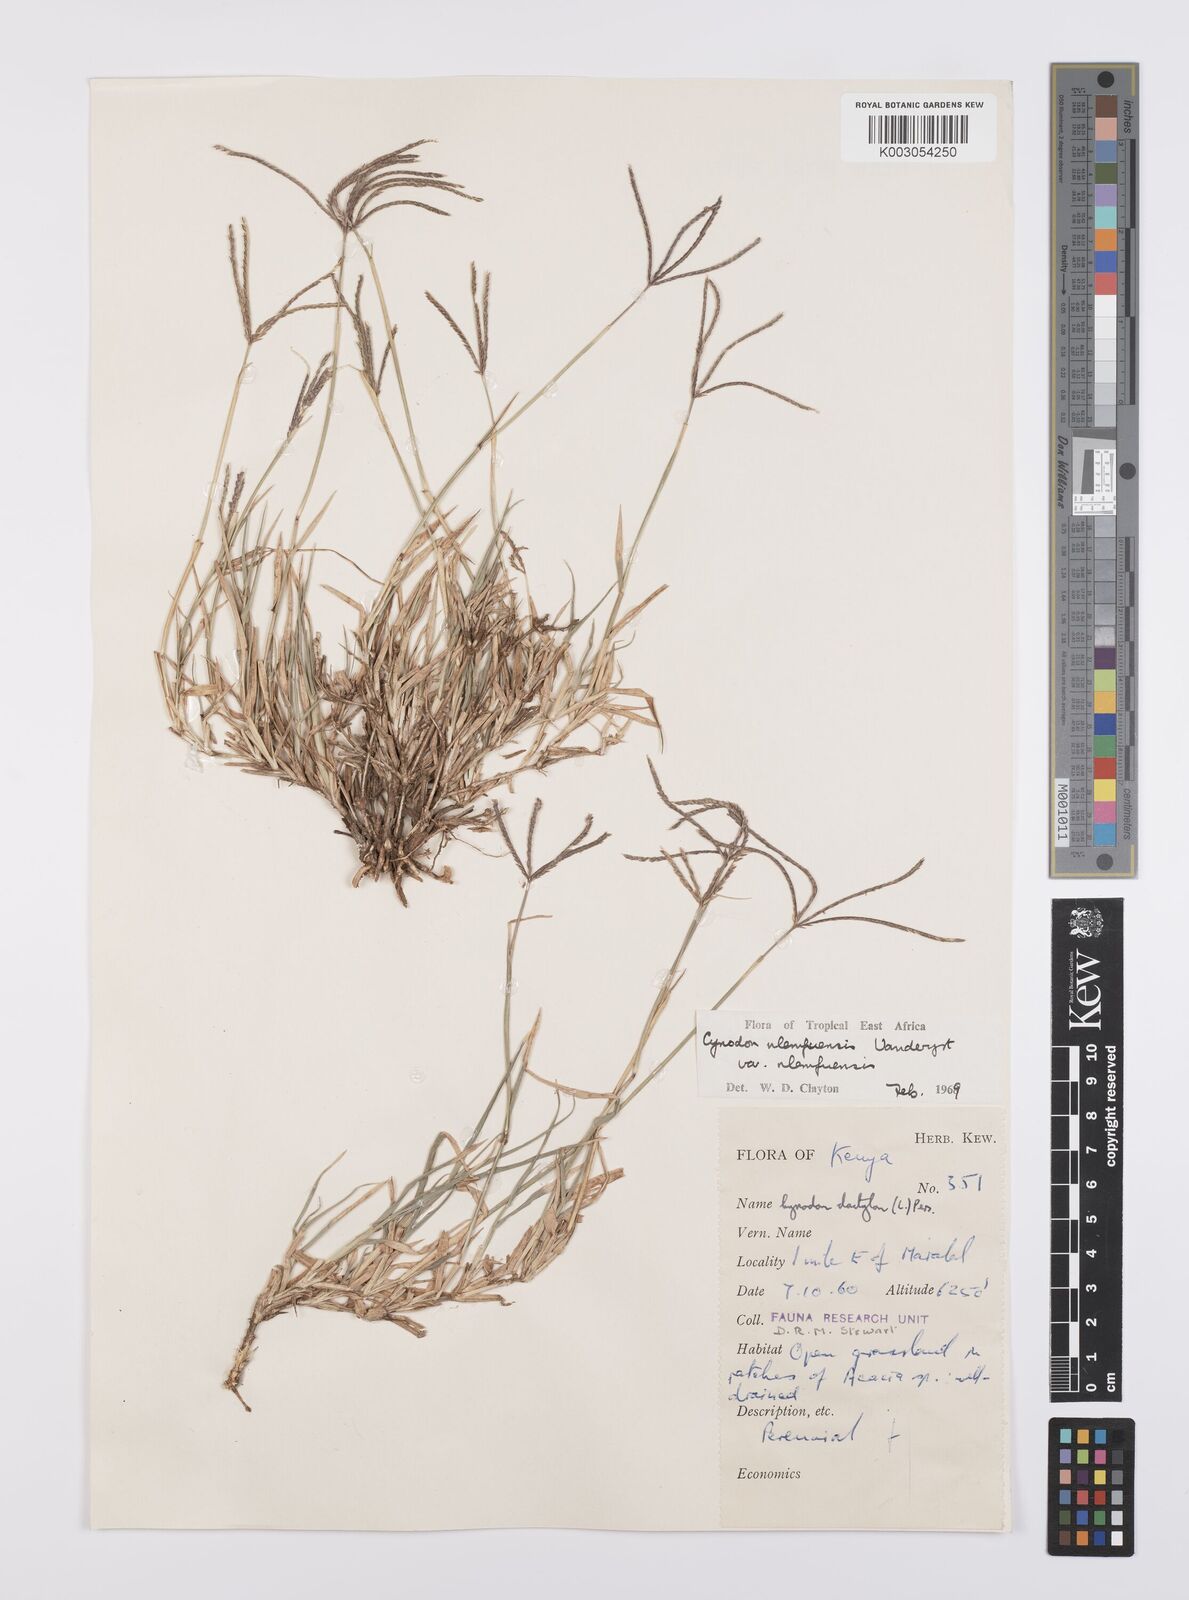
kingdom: Plantae
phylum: Tracheophyta
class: Liliopsida
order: Poales
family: Poaceae
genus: Cynodon
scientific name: Cynodon nlemfuensis
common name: African bermudagrass
